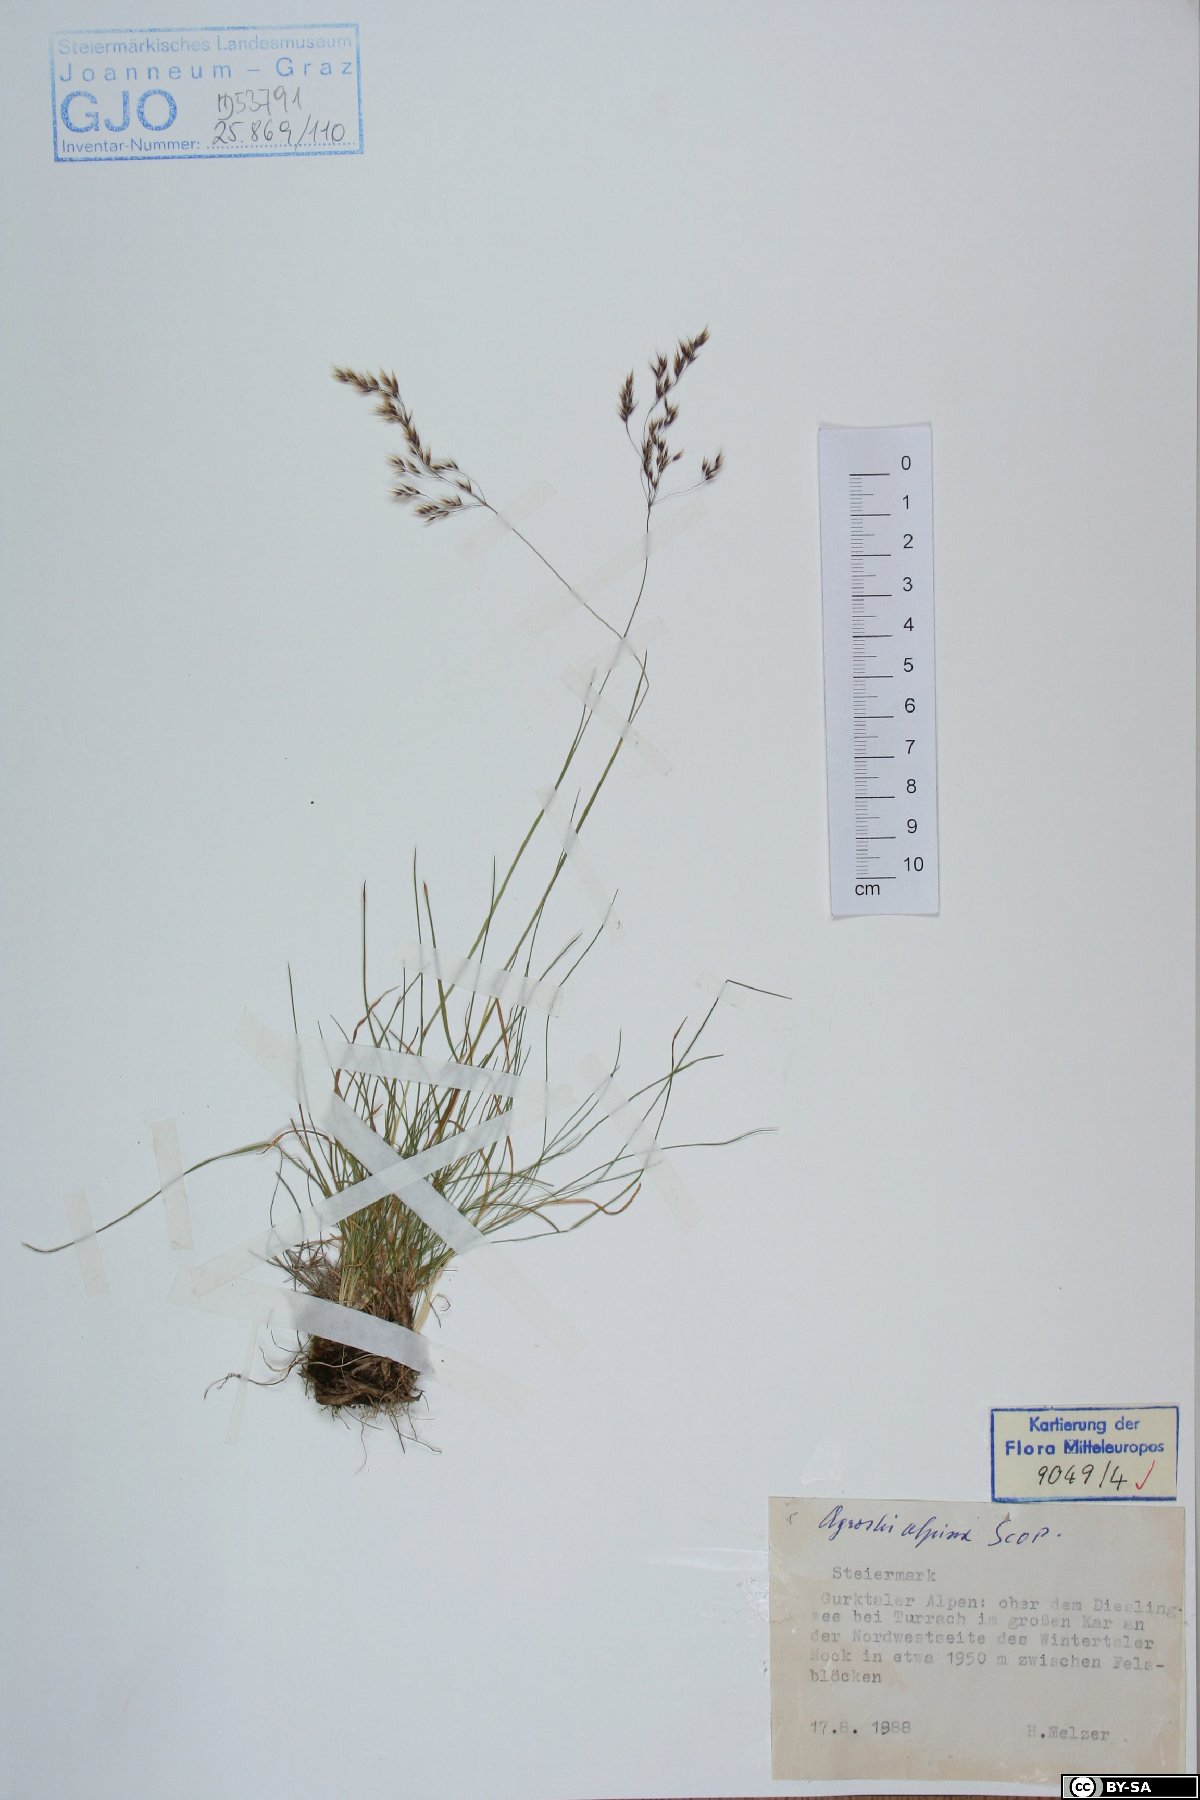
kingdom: Plantae
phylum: Tracheophyta
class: Liliopsida
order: Poales
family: Poaceae
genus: Alpagrostis
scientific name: Alpagrostis alpina
